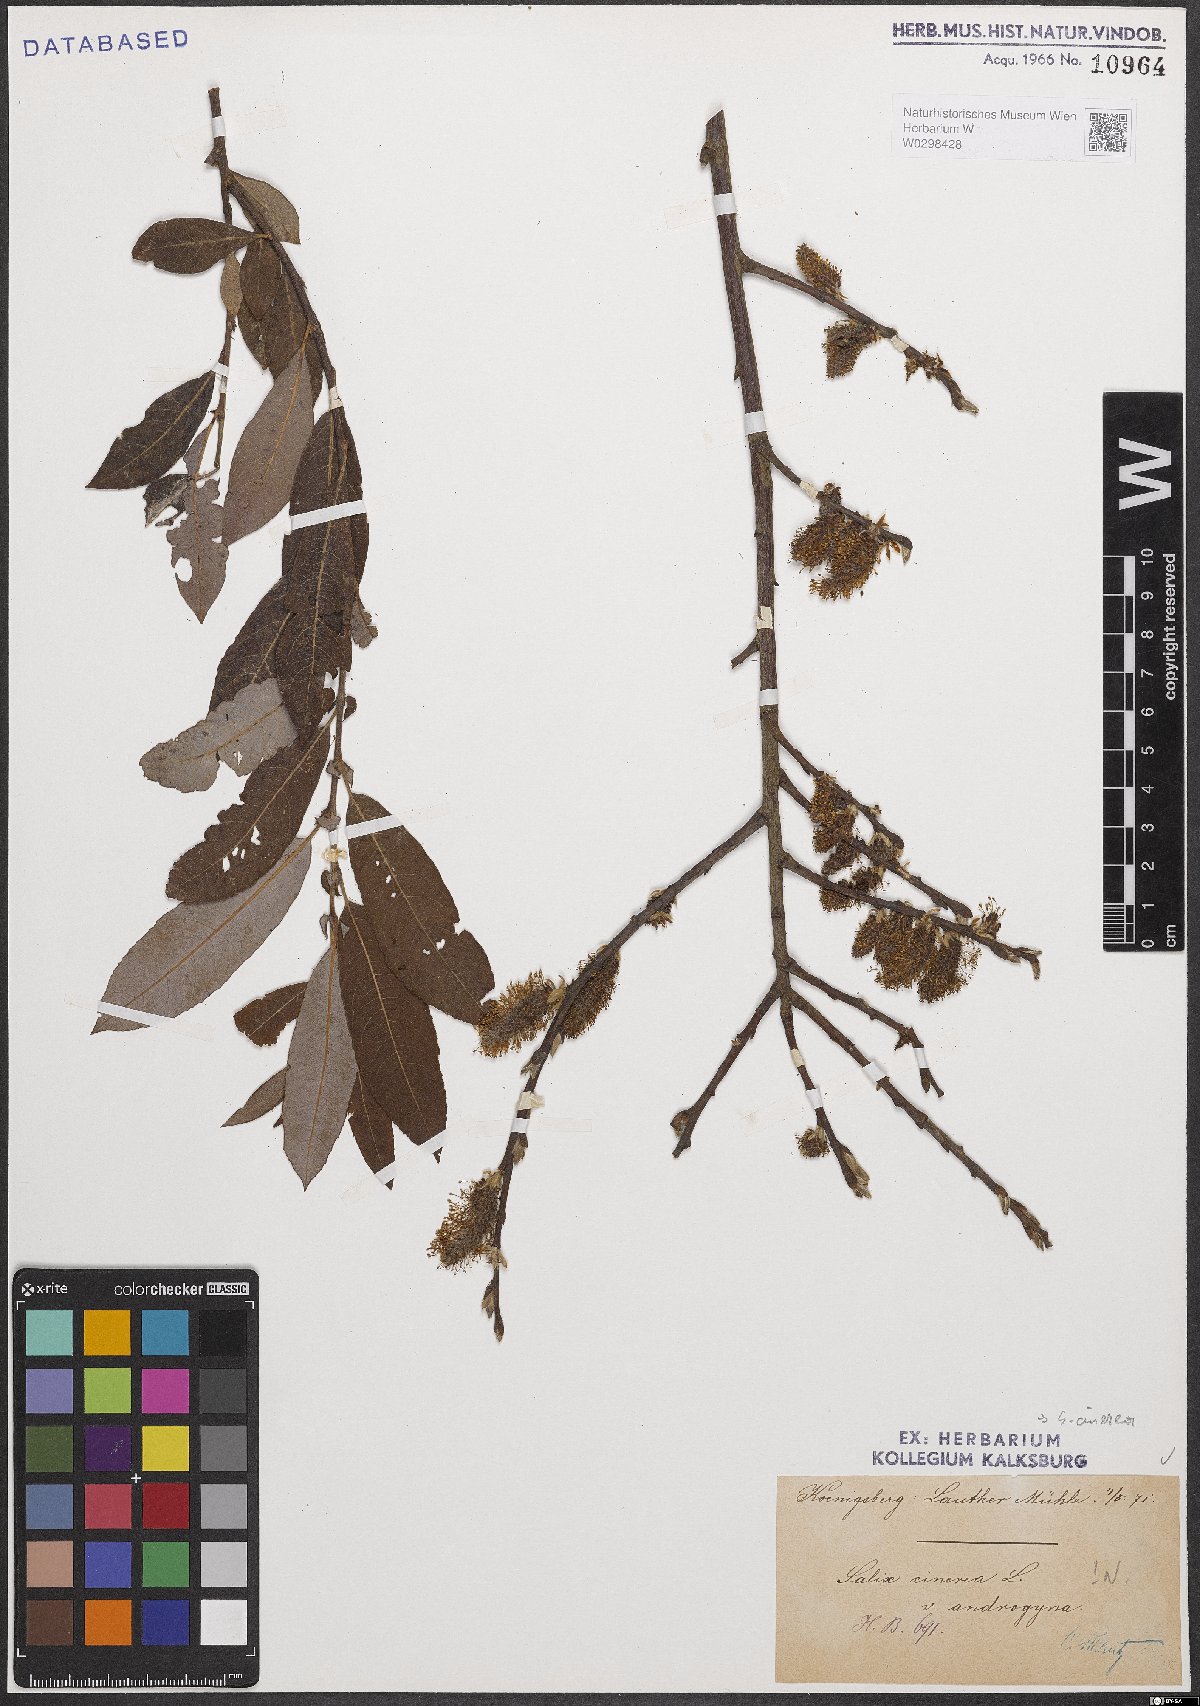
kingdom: Plantae
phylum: Tracheophyta
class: Magnoliopsida
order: Malpighiales
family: Salicaceae
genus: Salix
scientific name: Salix cinerea
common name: Common sallow
